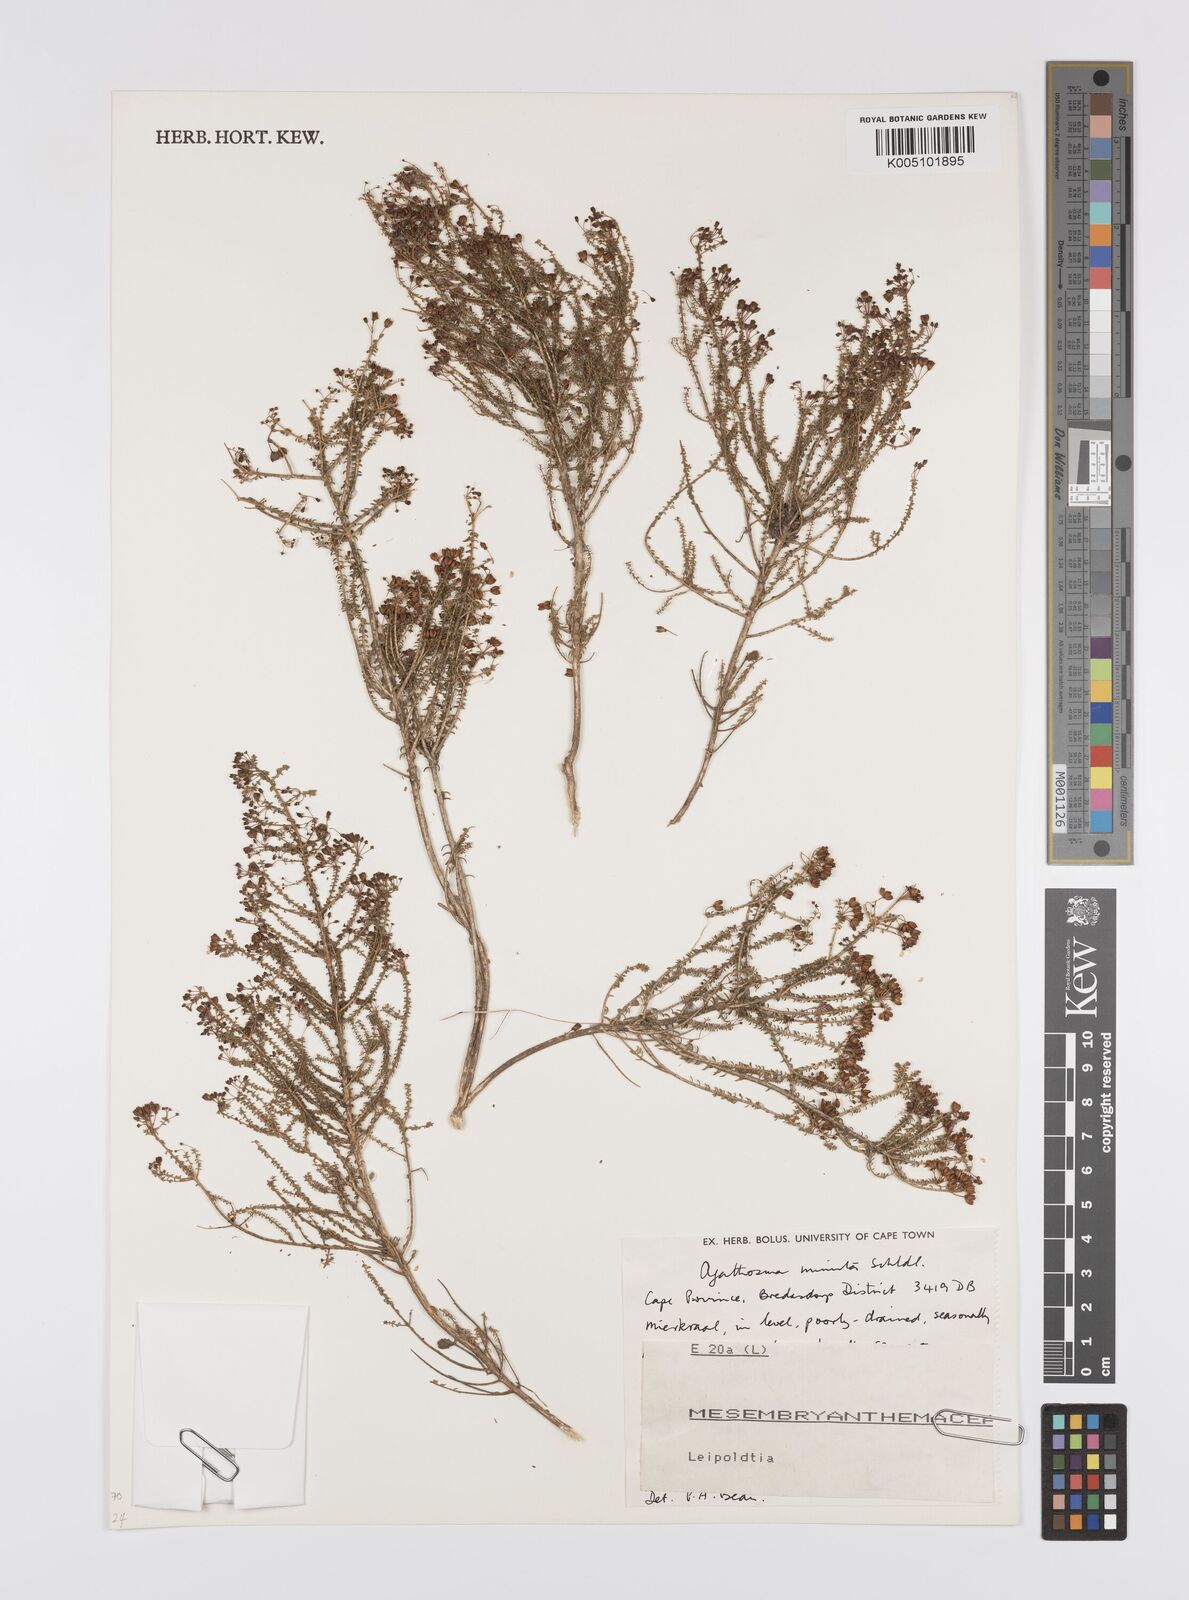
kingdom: Plantae
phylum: Tracheophyta
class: Magnoliopsida
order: Sapindales
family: Rutaceae
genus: Agathosma
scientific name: Agathosma minuta
